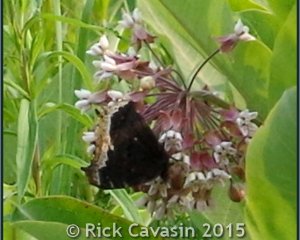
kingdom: Animalia
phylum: Arthropoda
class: Insecta
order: Lepidoptera
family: Nymphalidae
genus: Nymphalis
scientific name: Nymphalis antiopa
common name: Mourning Cloak
